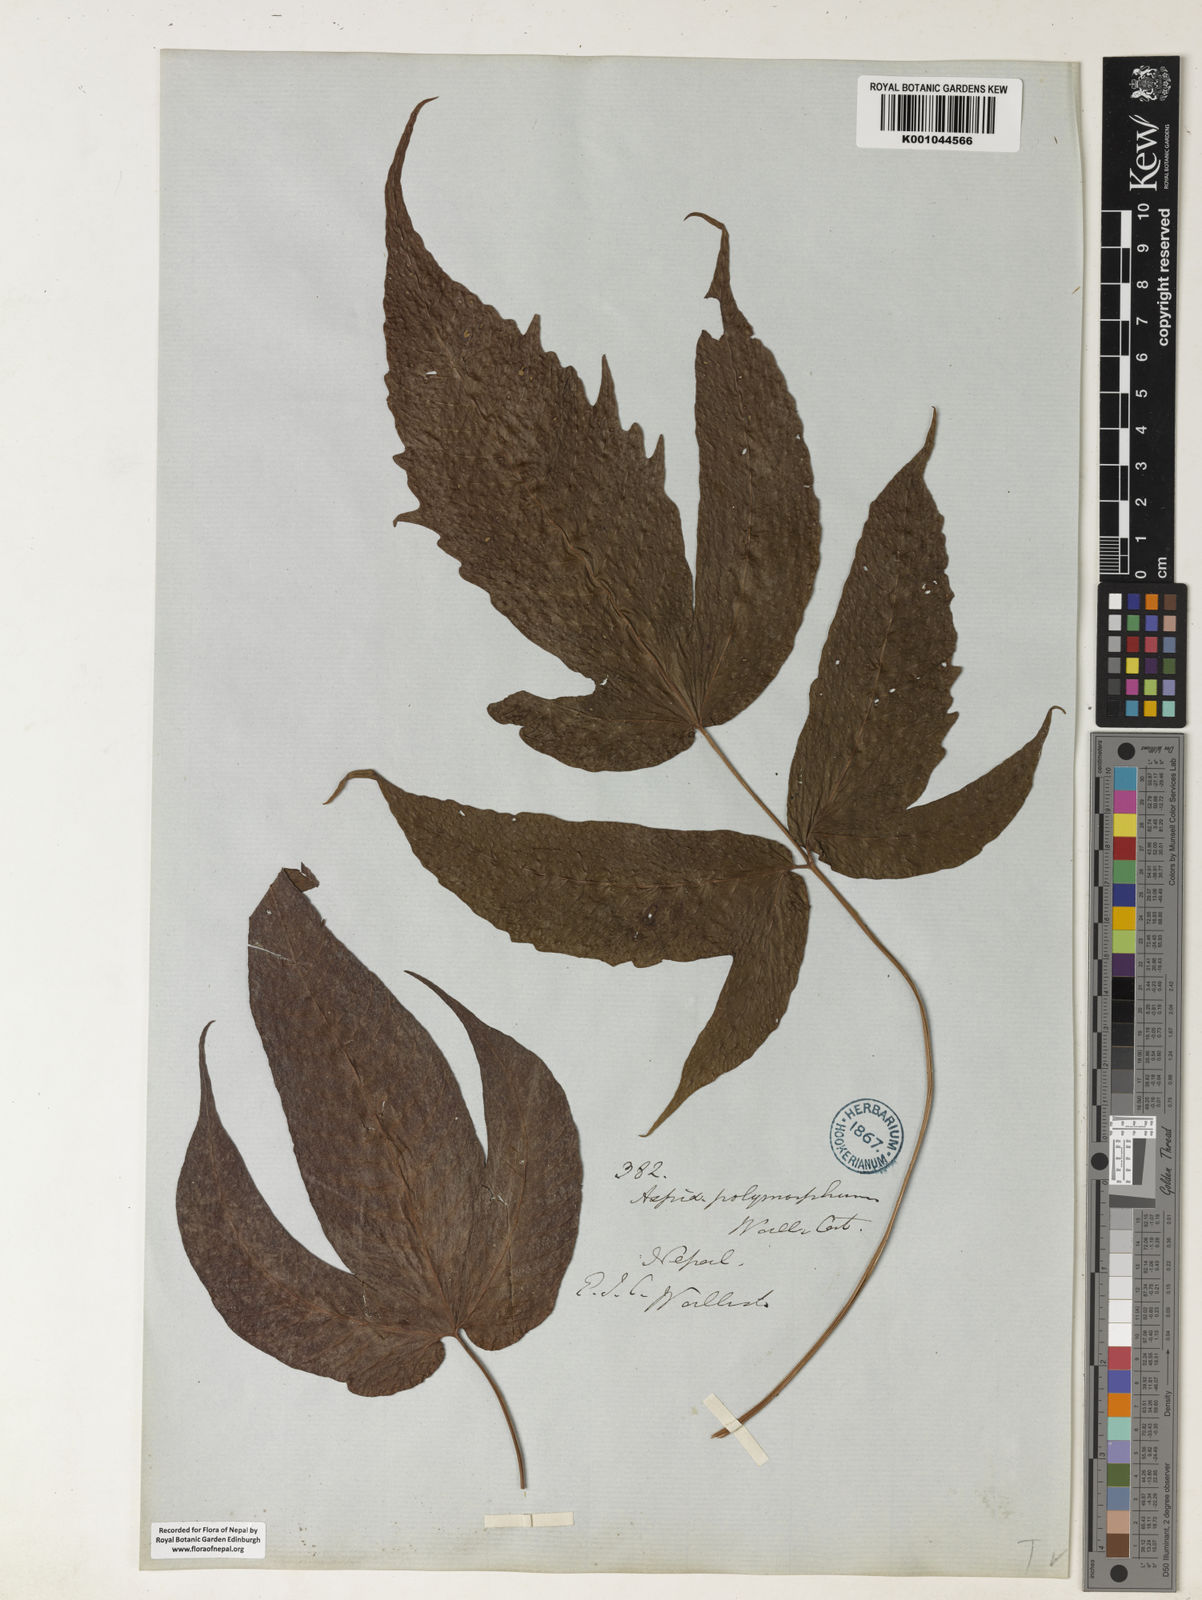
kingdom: Plantae
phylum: Tracheophyta
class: Polypodiopsida
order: Polypodiales
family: Tectariaceae
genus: Tectaria
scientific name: Tectaria wightii
